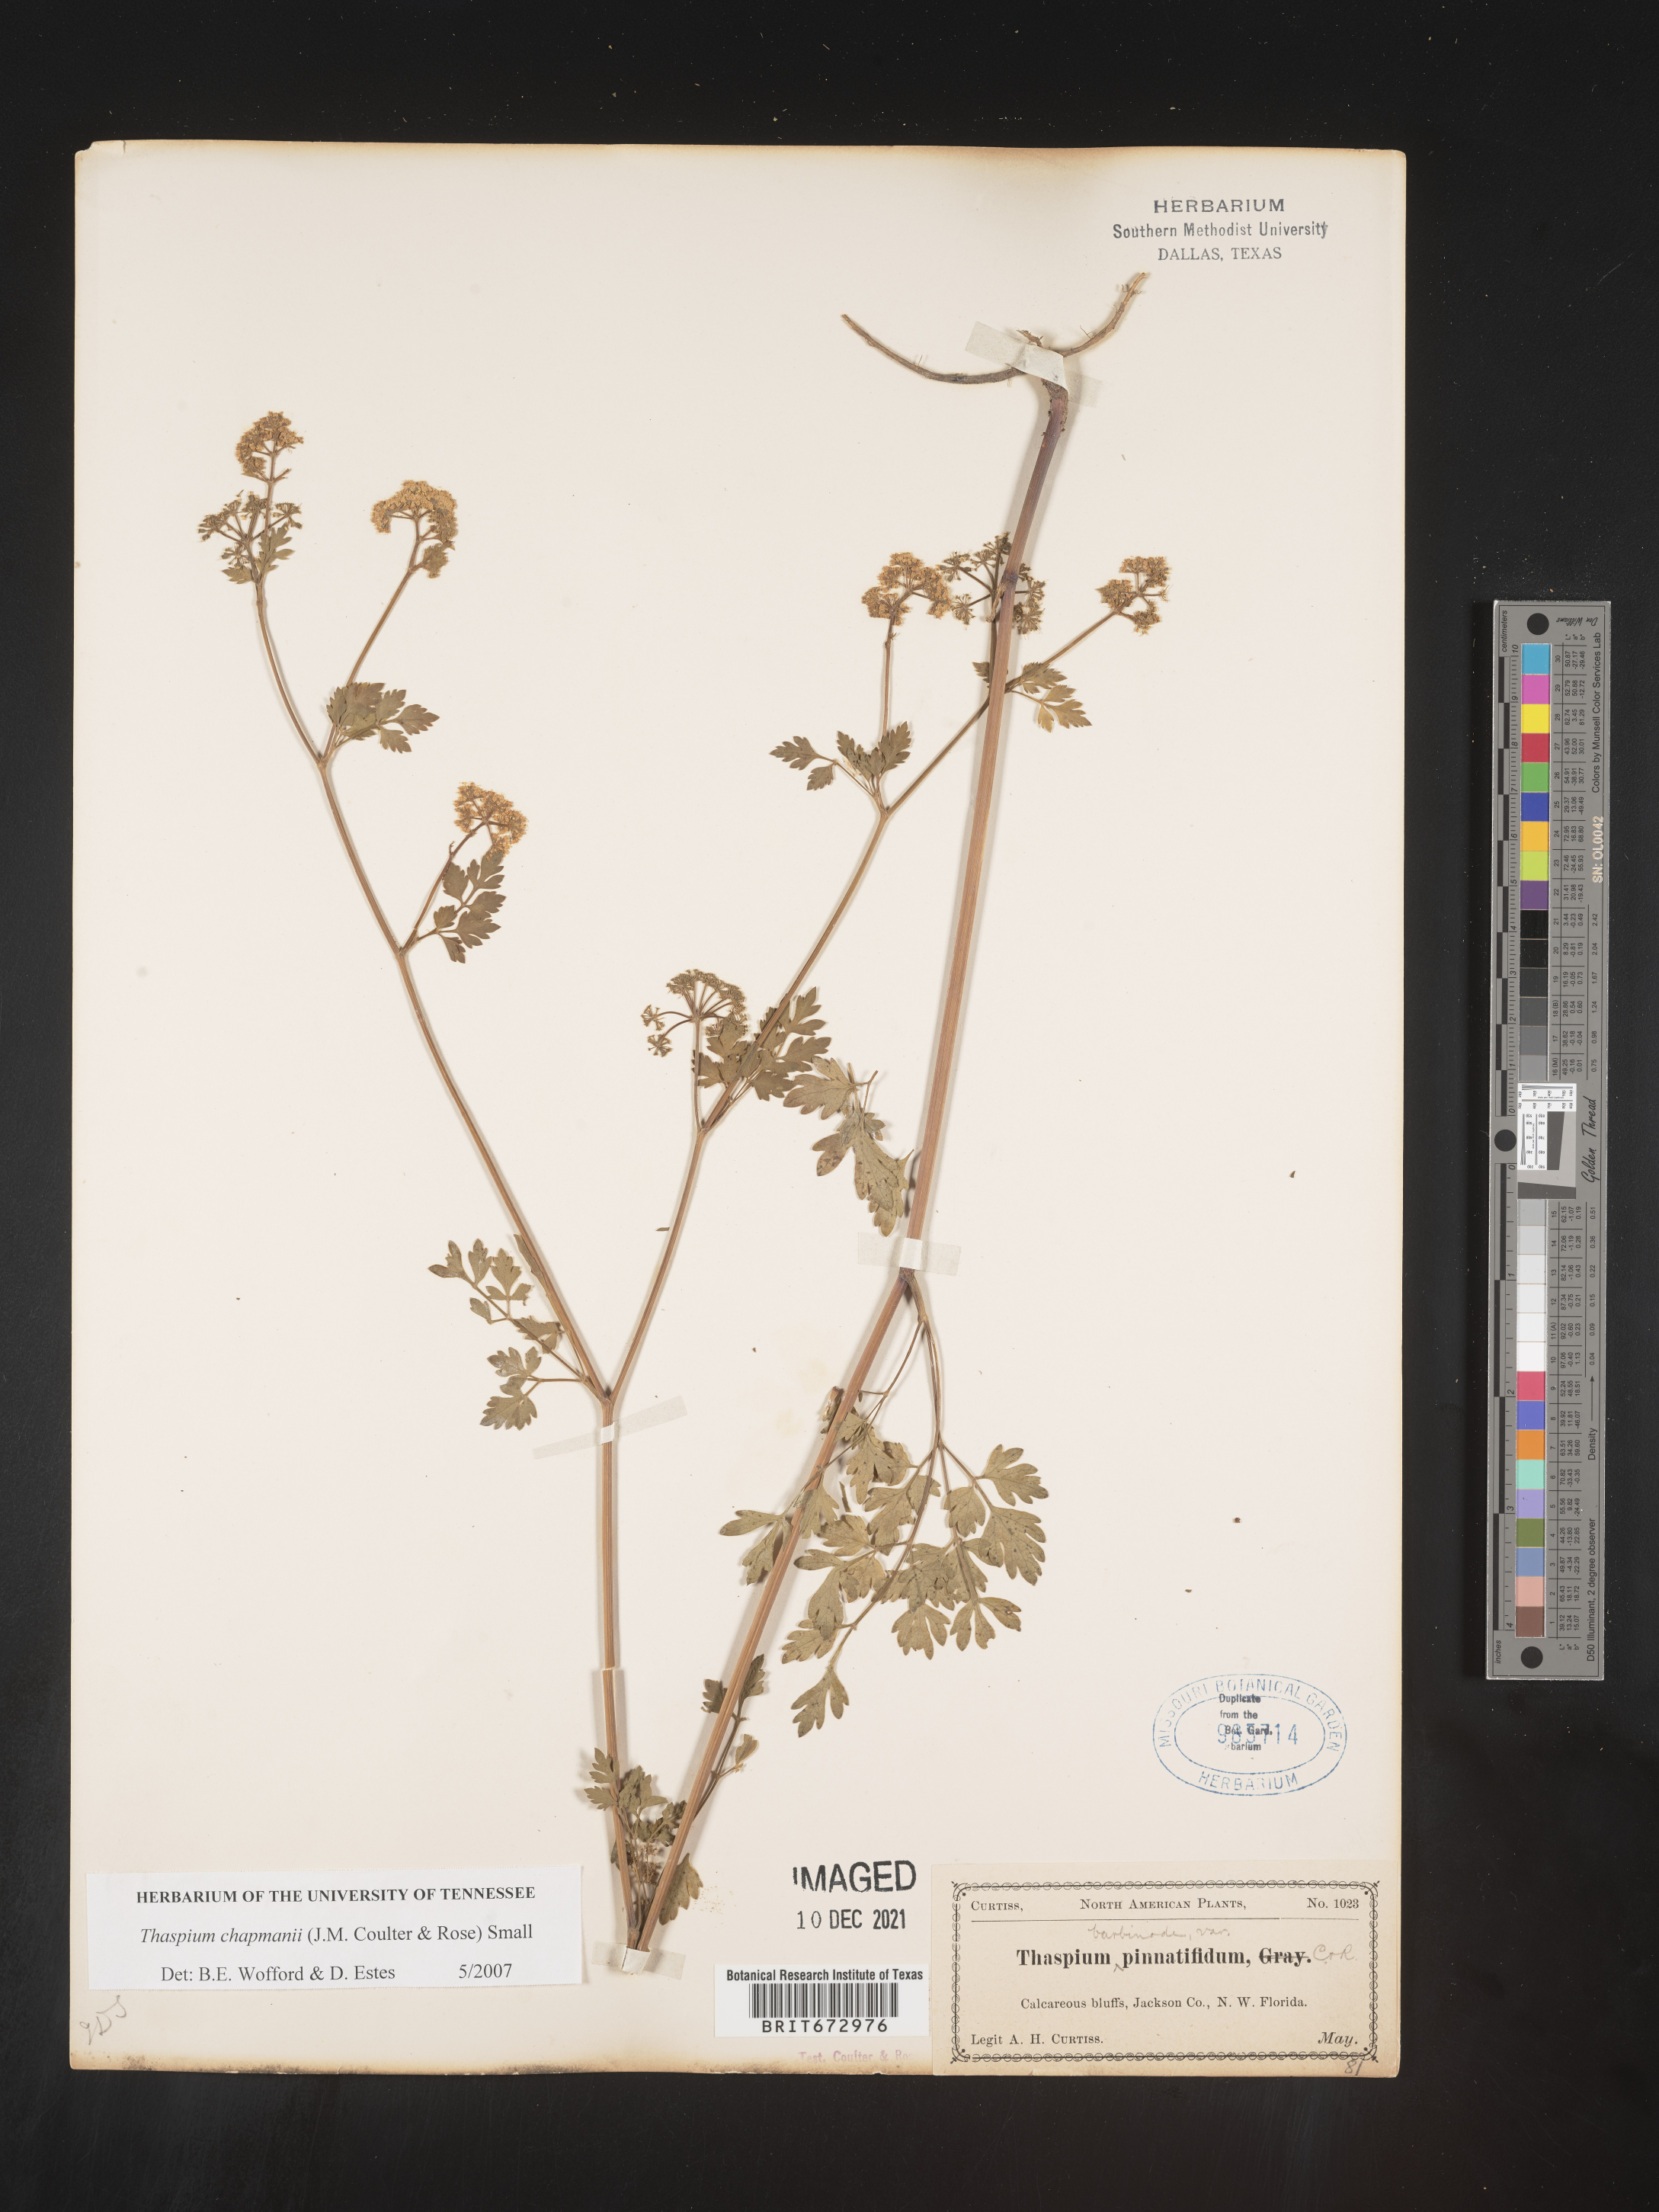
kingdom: Plantae
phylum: Tracheophyta
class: Magnoliopsida
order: Apiales
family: Apiaceae
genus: Thaspium
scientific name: Thaspium barbinode
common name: Bearded meadow-parsnip
